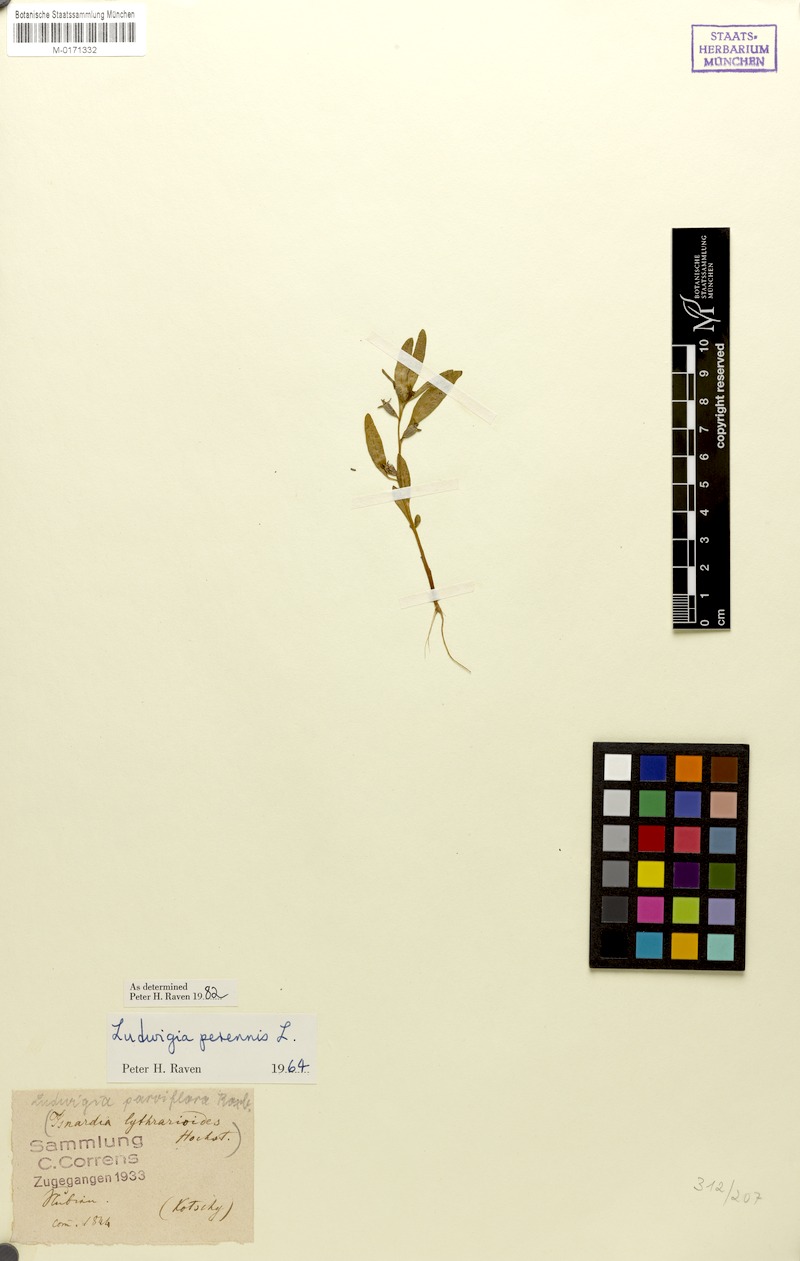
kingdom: Plantae
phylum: Tracheophyta
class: Magnoliopsida
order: Myrtales
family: Onagraceae
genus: Ludwigia
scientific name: Ludwigia perennis
